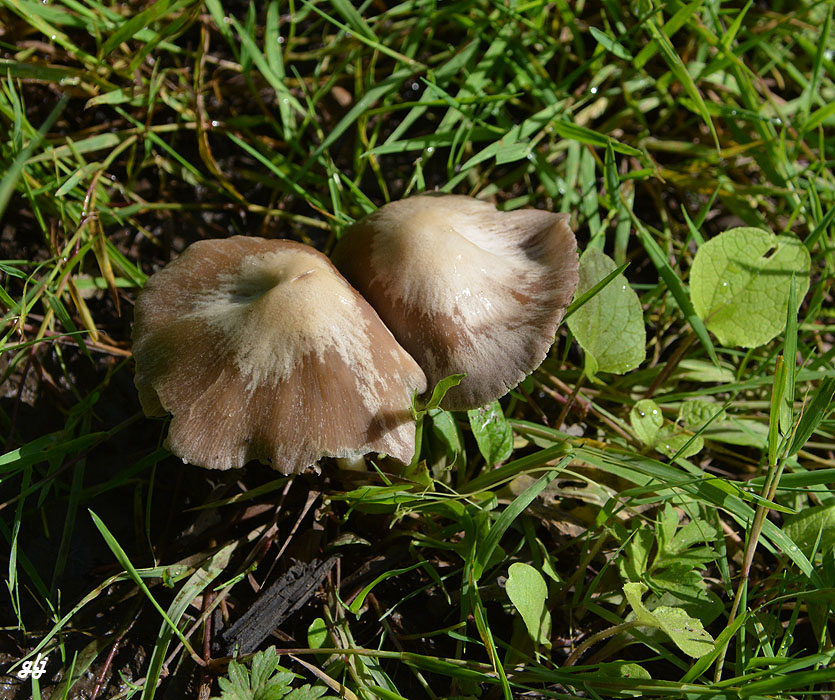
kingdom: Fungi
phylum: Basidiomycota
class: Agaricomycetes
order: Agaricales
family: Psathyrellaceae
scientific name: Psathyrellaceae
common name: mørkhatfamilien
